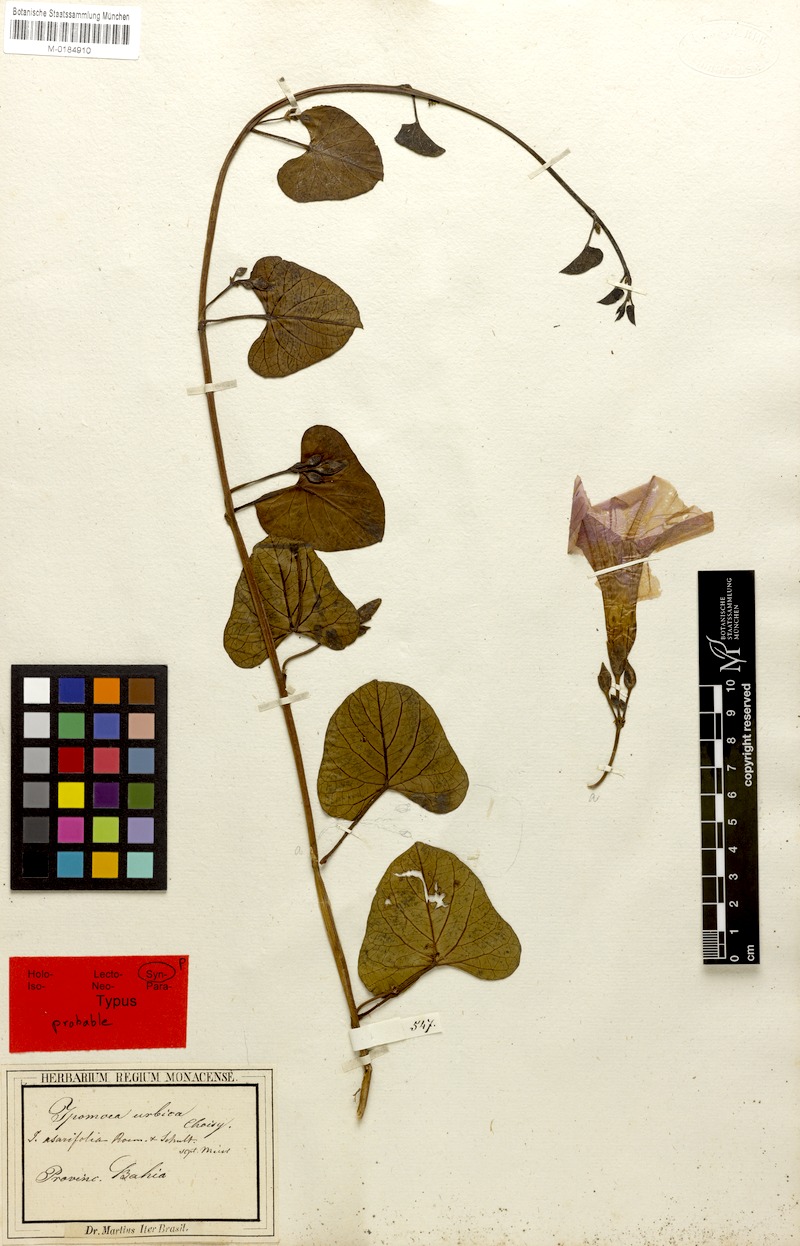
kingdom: Plantae
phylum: Tracheophyta
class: Magnoliopsida
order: Solanales
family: Convolvulaceae
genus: Ipomoea
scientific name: Ipomoea asarifolia
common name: Ginger-leaf morning-glory
